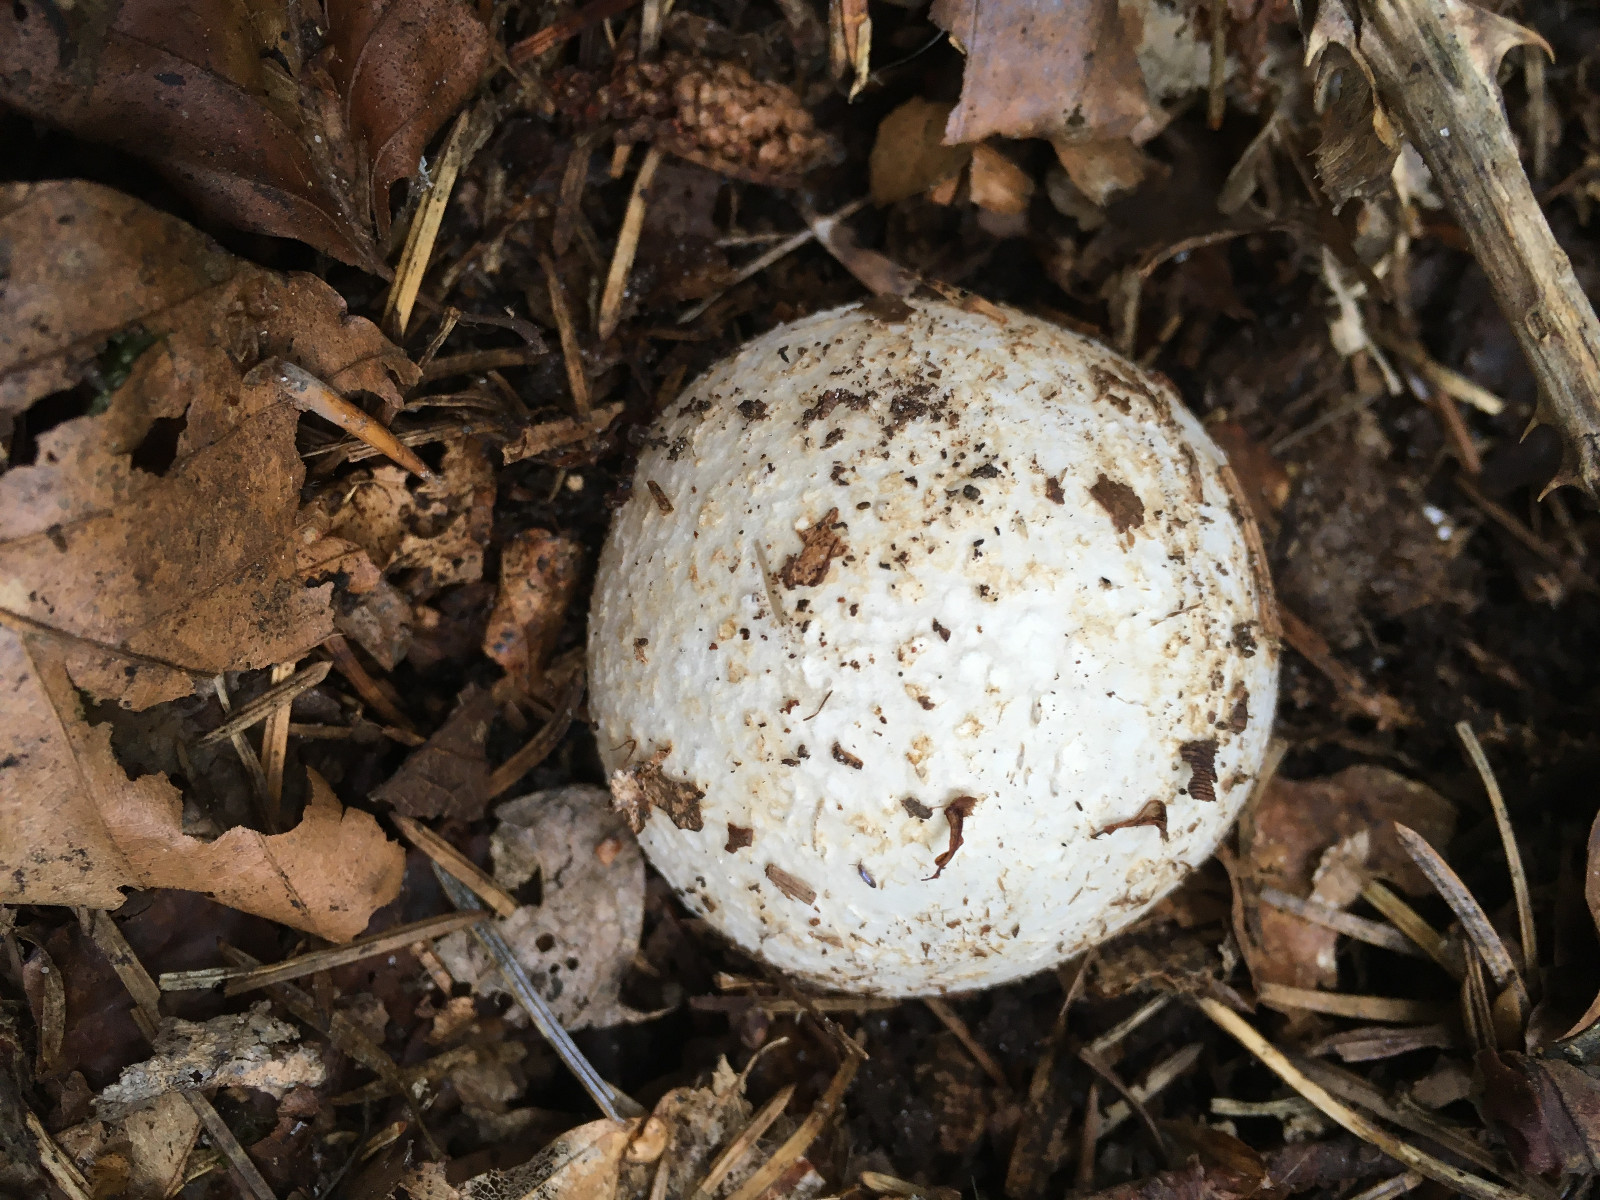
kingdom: Fungi
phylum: Basidiomycota
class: Agaricomycetes
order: Phallales
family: Phallaceae
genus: Phallus
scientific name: Phallus impudicus
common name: almindelig stinksvamp
